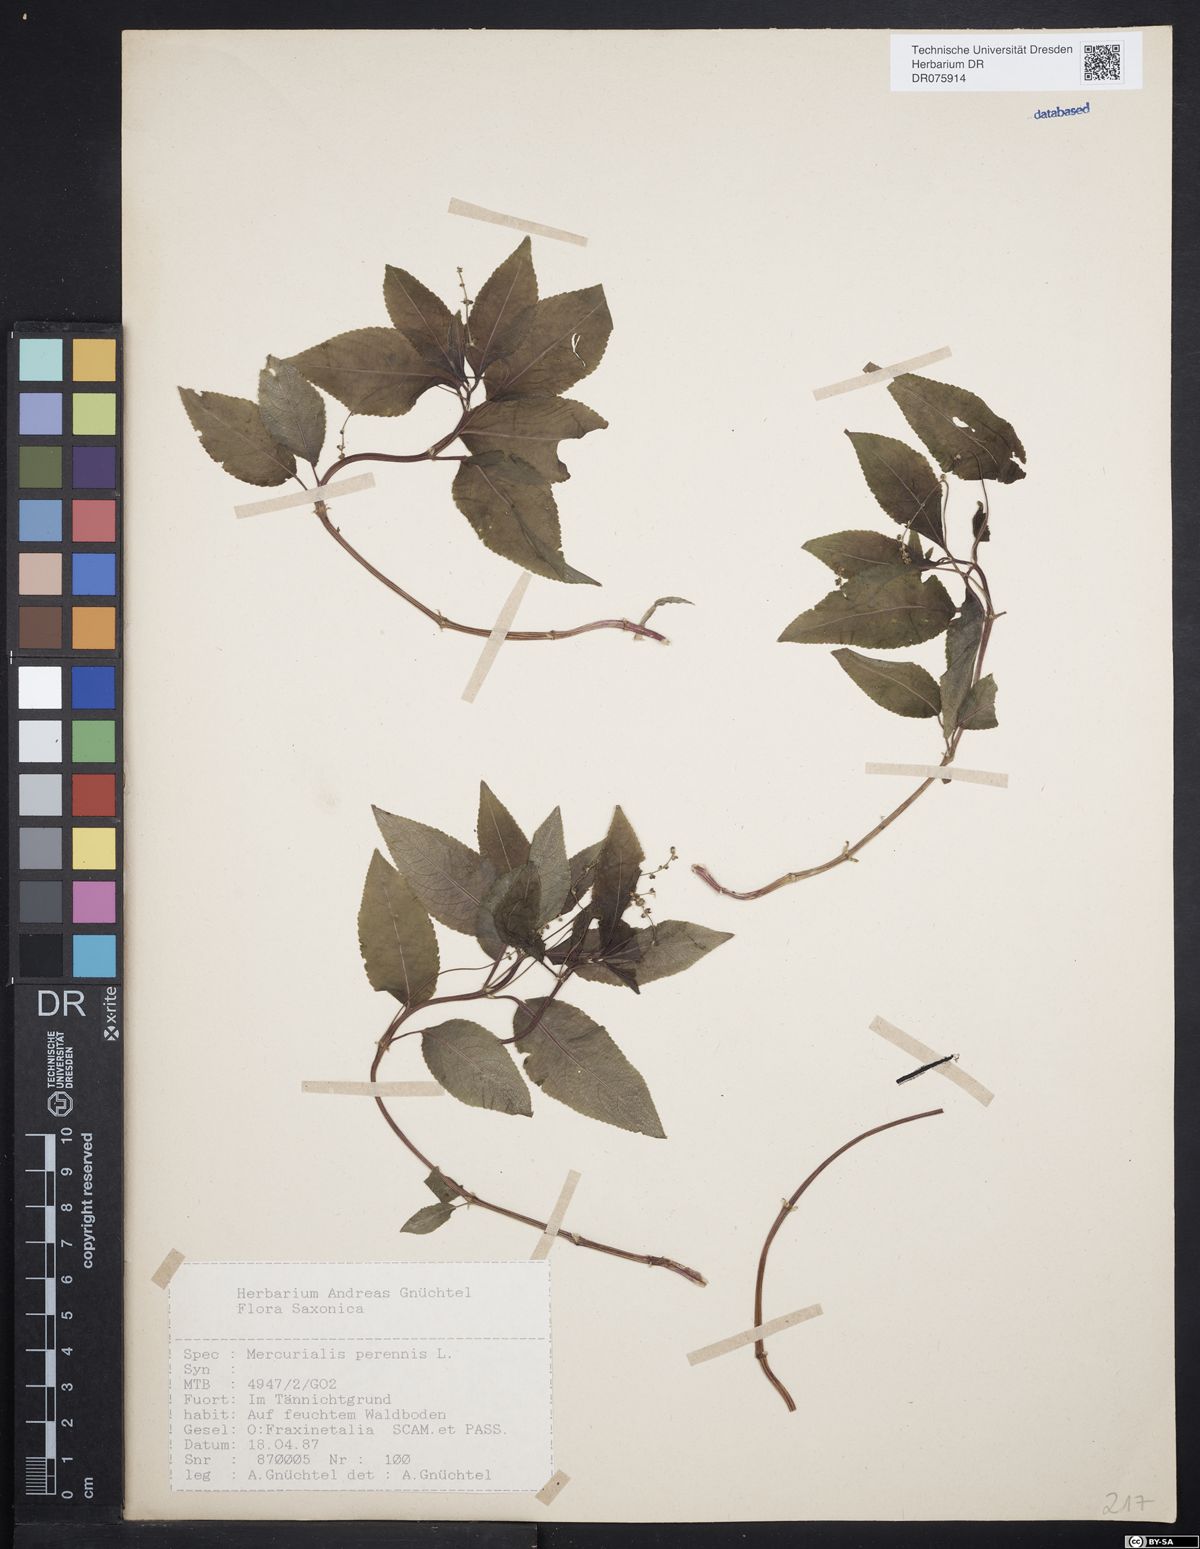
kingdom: Plantae
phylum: Tracheophyta
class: Magnoliopsida
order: Malpighiales
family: Euphorbiaceae
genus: Mercurialis
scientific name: Mercurialis perennis
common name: Dog mercury
